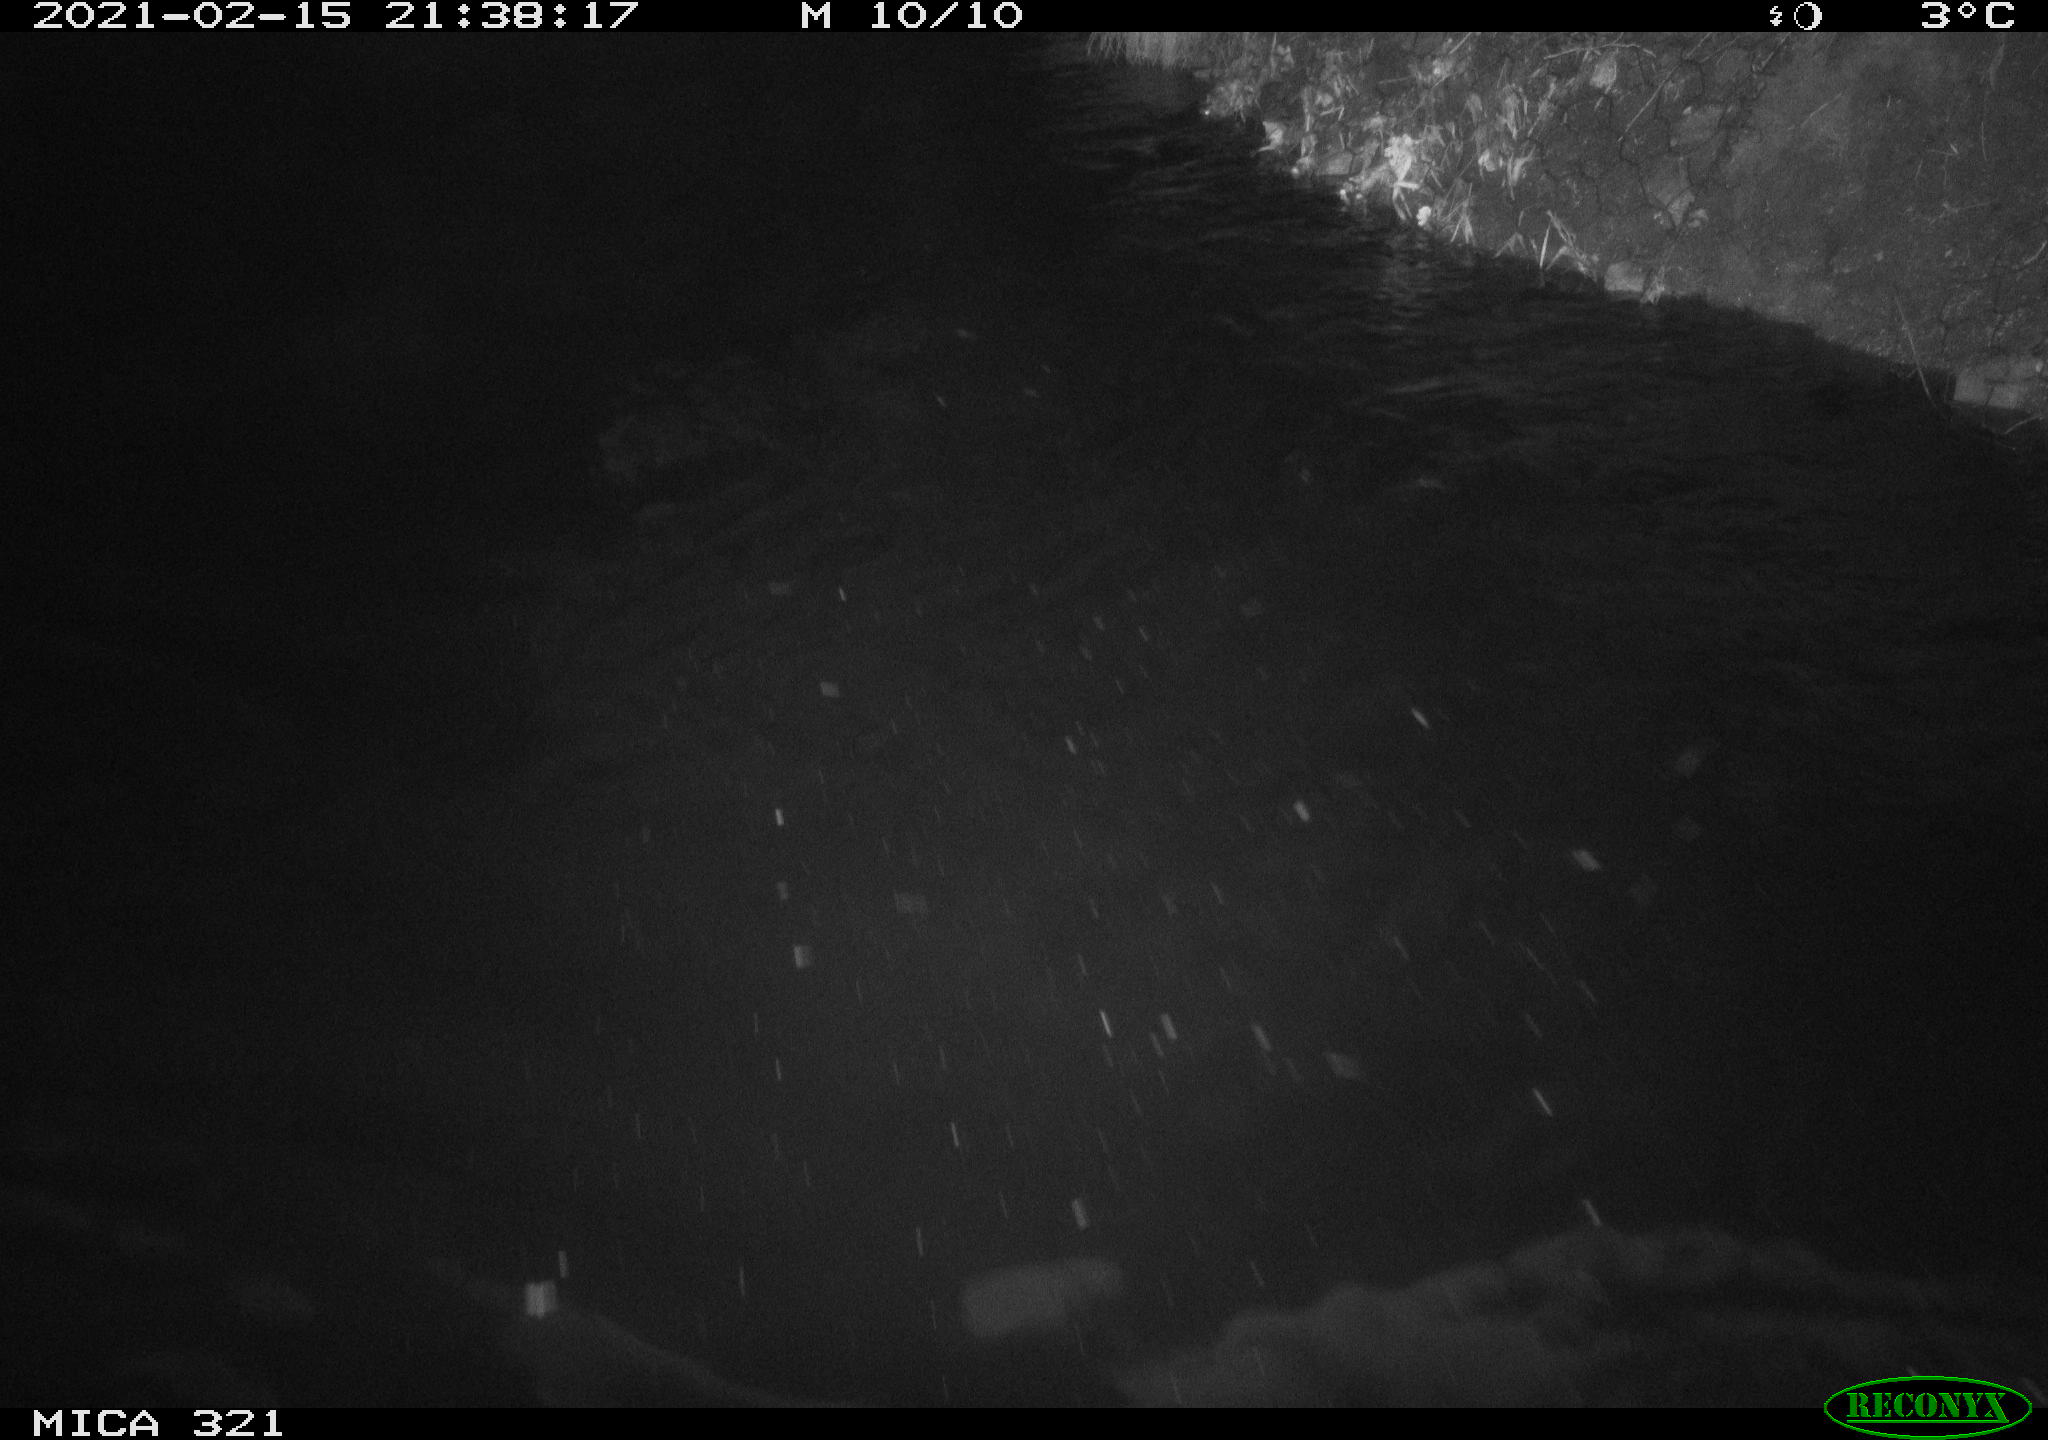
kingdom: Animalia
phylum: Chordata
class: Aves
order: Gruiformes
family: Rallidae
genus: Fulica
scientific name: Fulica atra
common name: Eurasian coot
